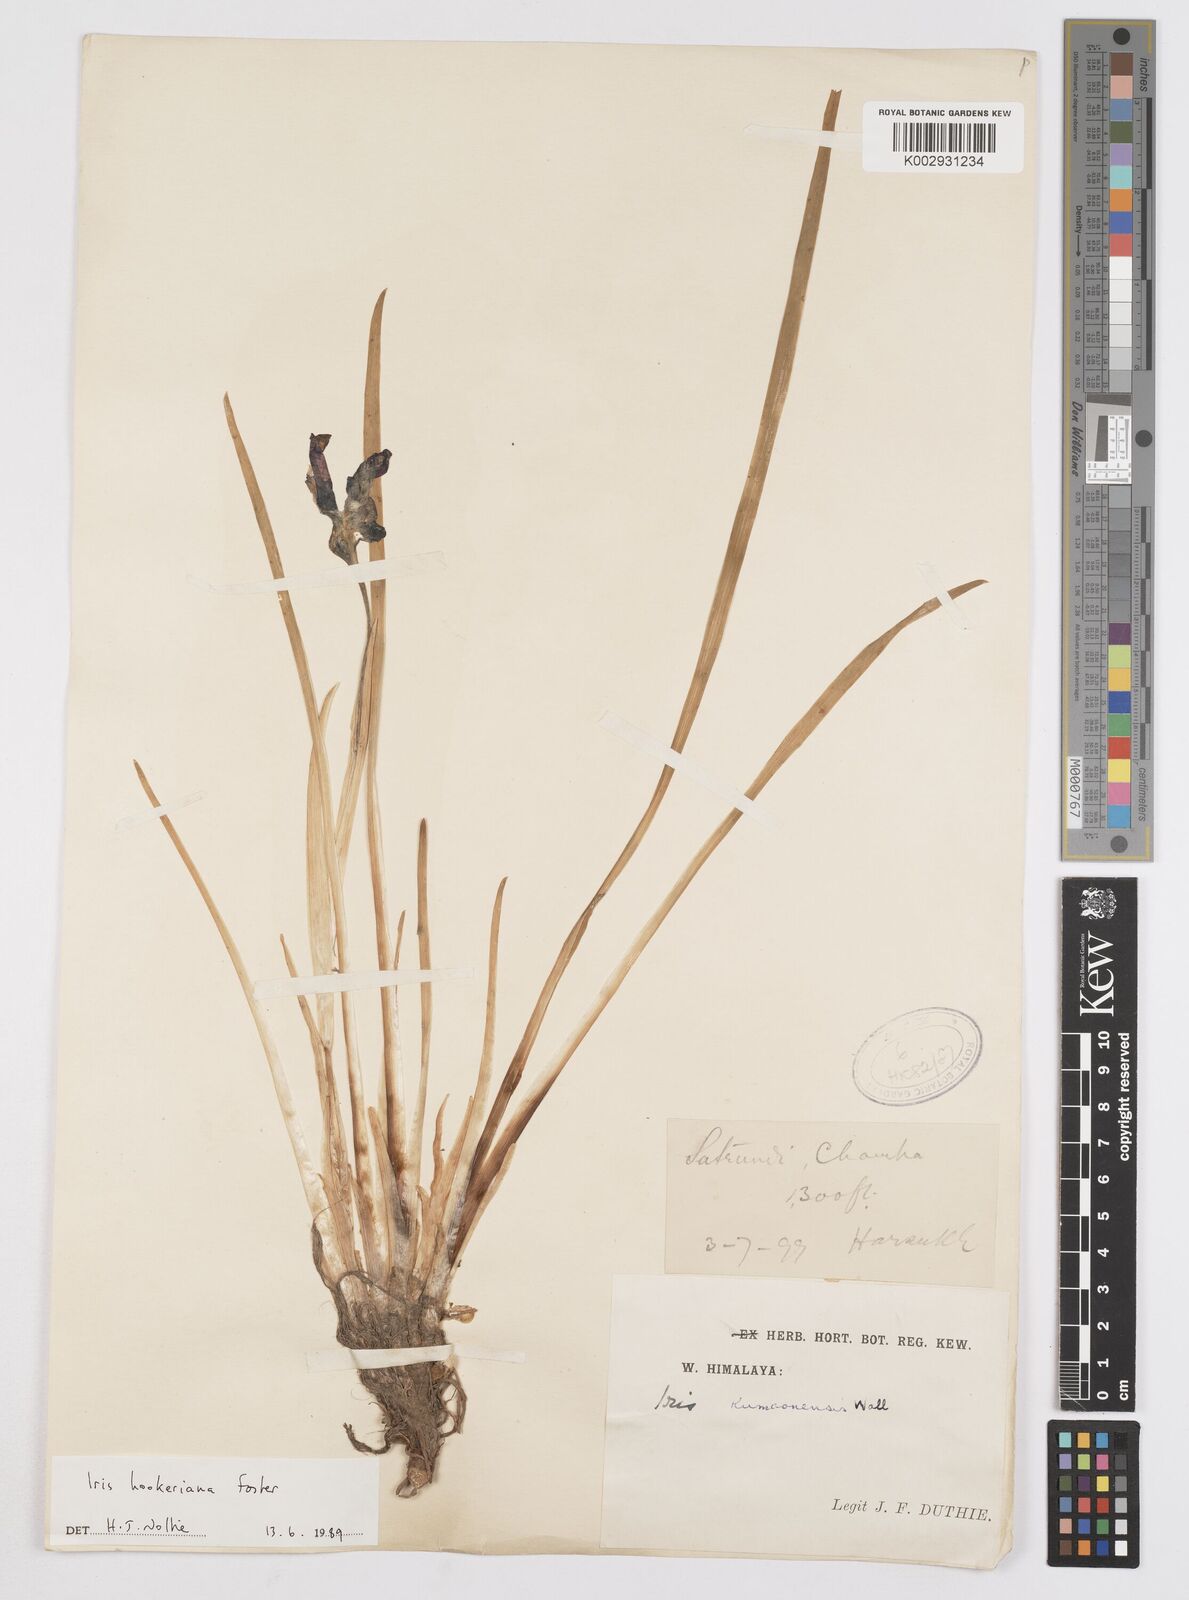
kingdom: Plantae
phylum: Tracheophyta
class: Liliopsida
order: Asparagales
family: Iridaceae
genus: Iris
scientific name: Iris hookeriana
